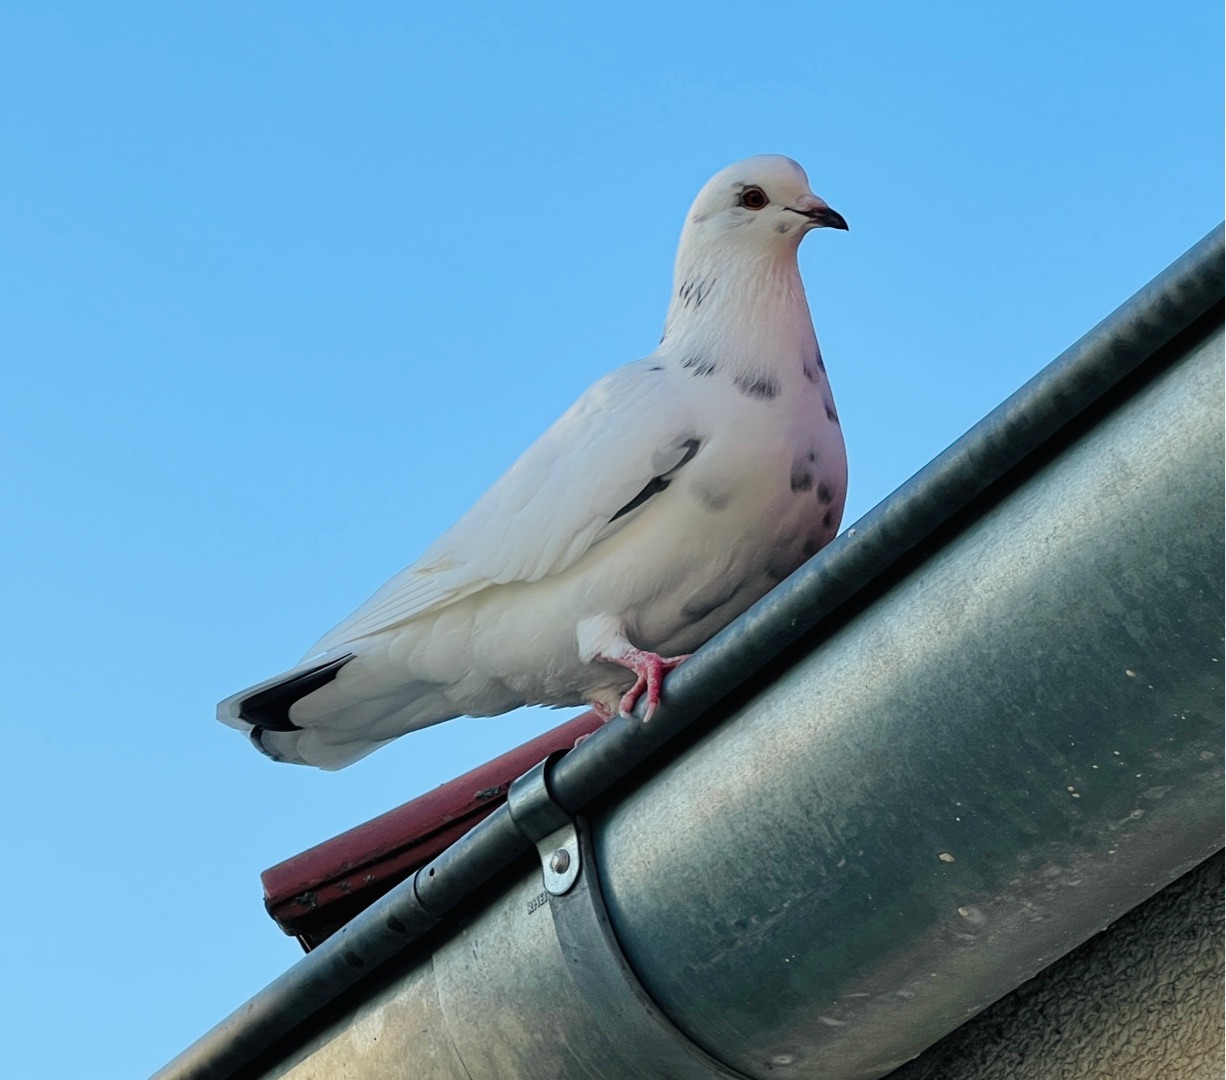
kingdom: Animalia
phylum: Chordata
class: Aves
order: Columbiformes
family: Columbidae
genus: Columba
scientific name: Columba livia
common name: Tamdue
